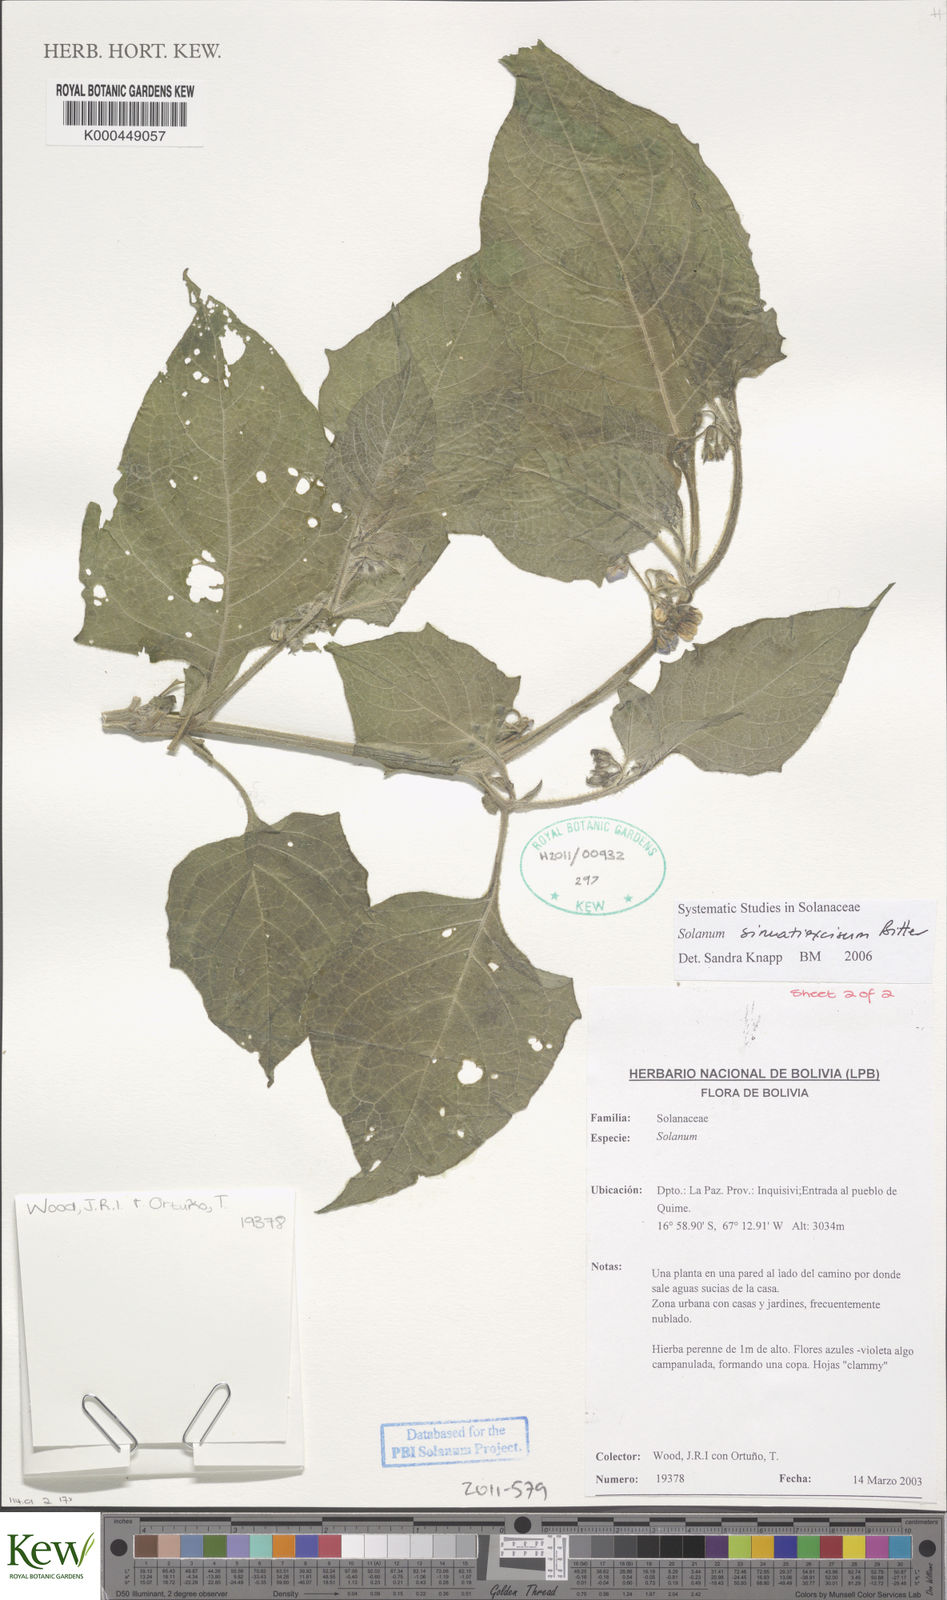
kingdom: Plantae
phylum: Tracheophyta
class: Magnoliopsida
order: Solanales
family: Solanaceae
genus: Solanum
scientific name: Solanum sinuatiexcisum
